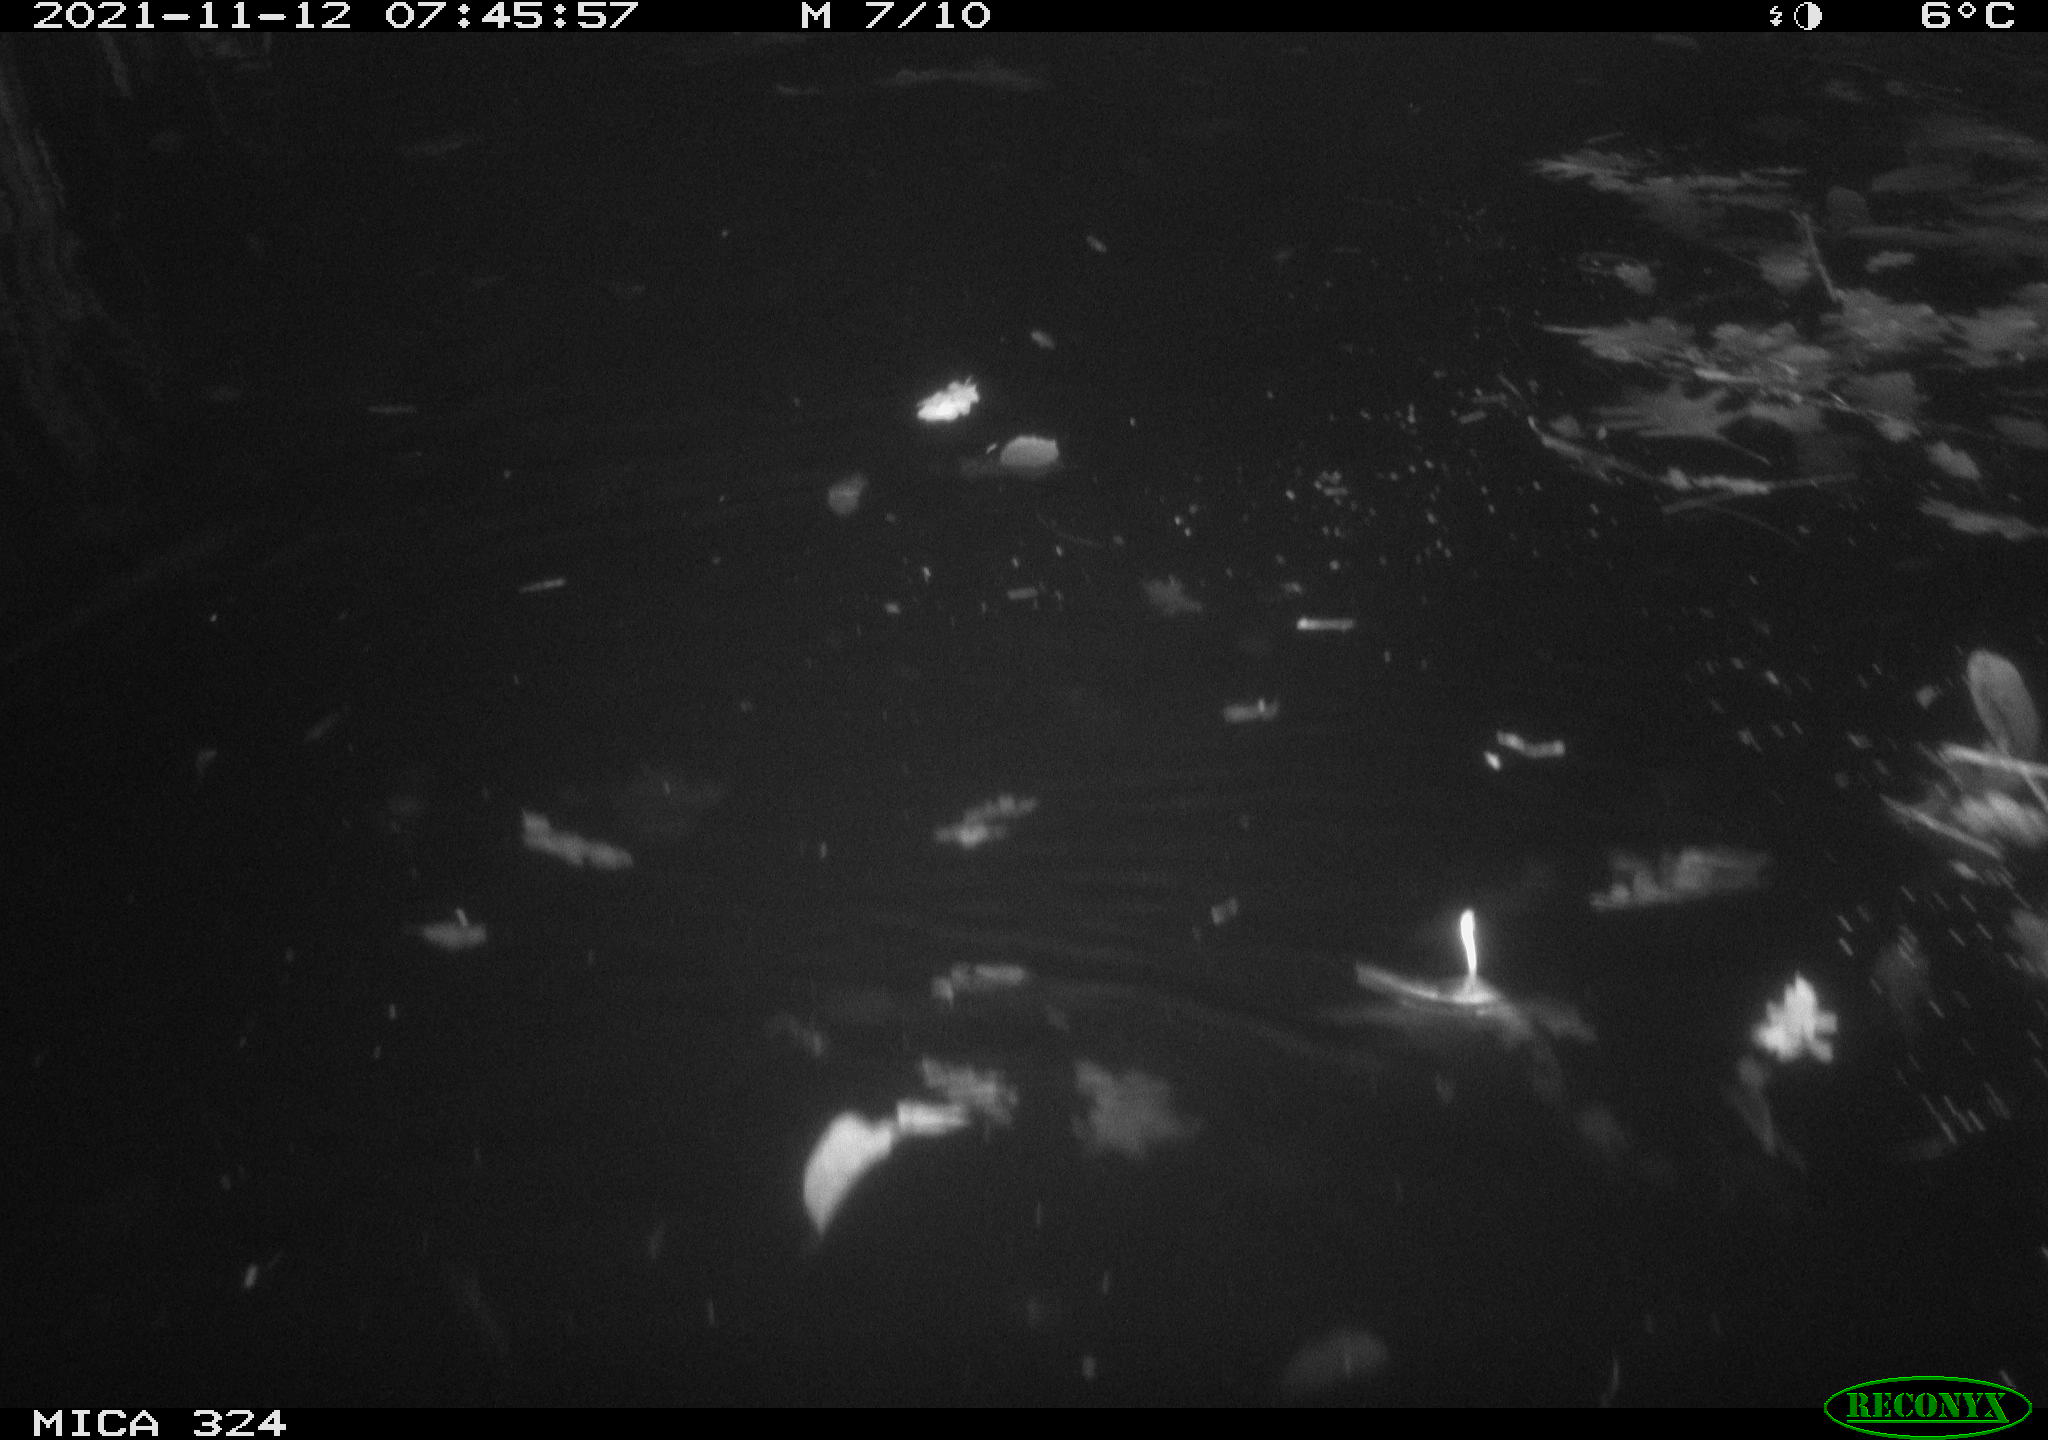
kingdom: Animalia
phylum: Chordata
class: Mammalia
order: Rodentia
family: Cricetidae
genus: Ondatra
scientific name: Ondatra zibethicus
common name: Muskrat
